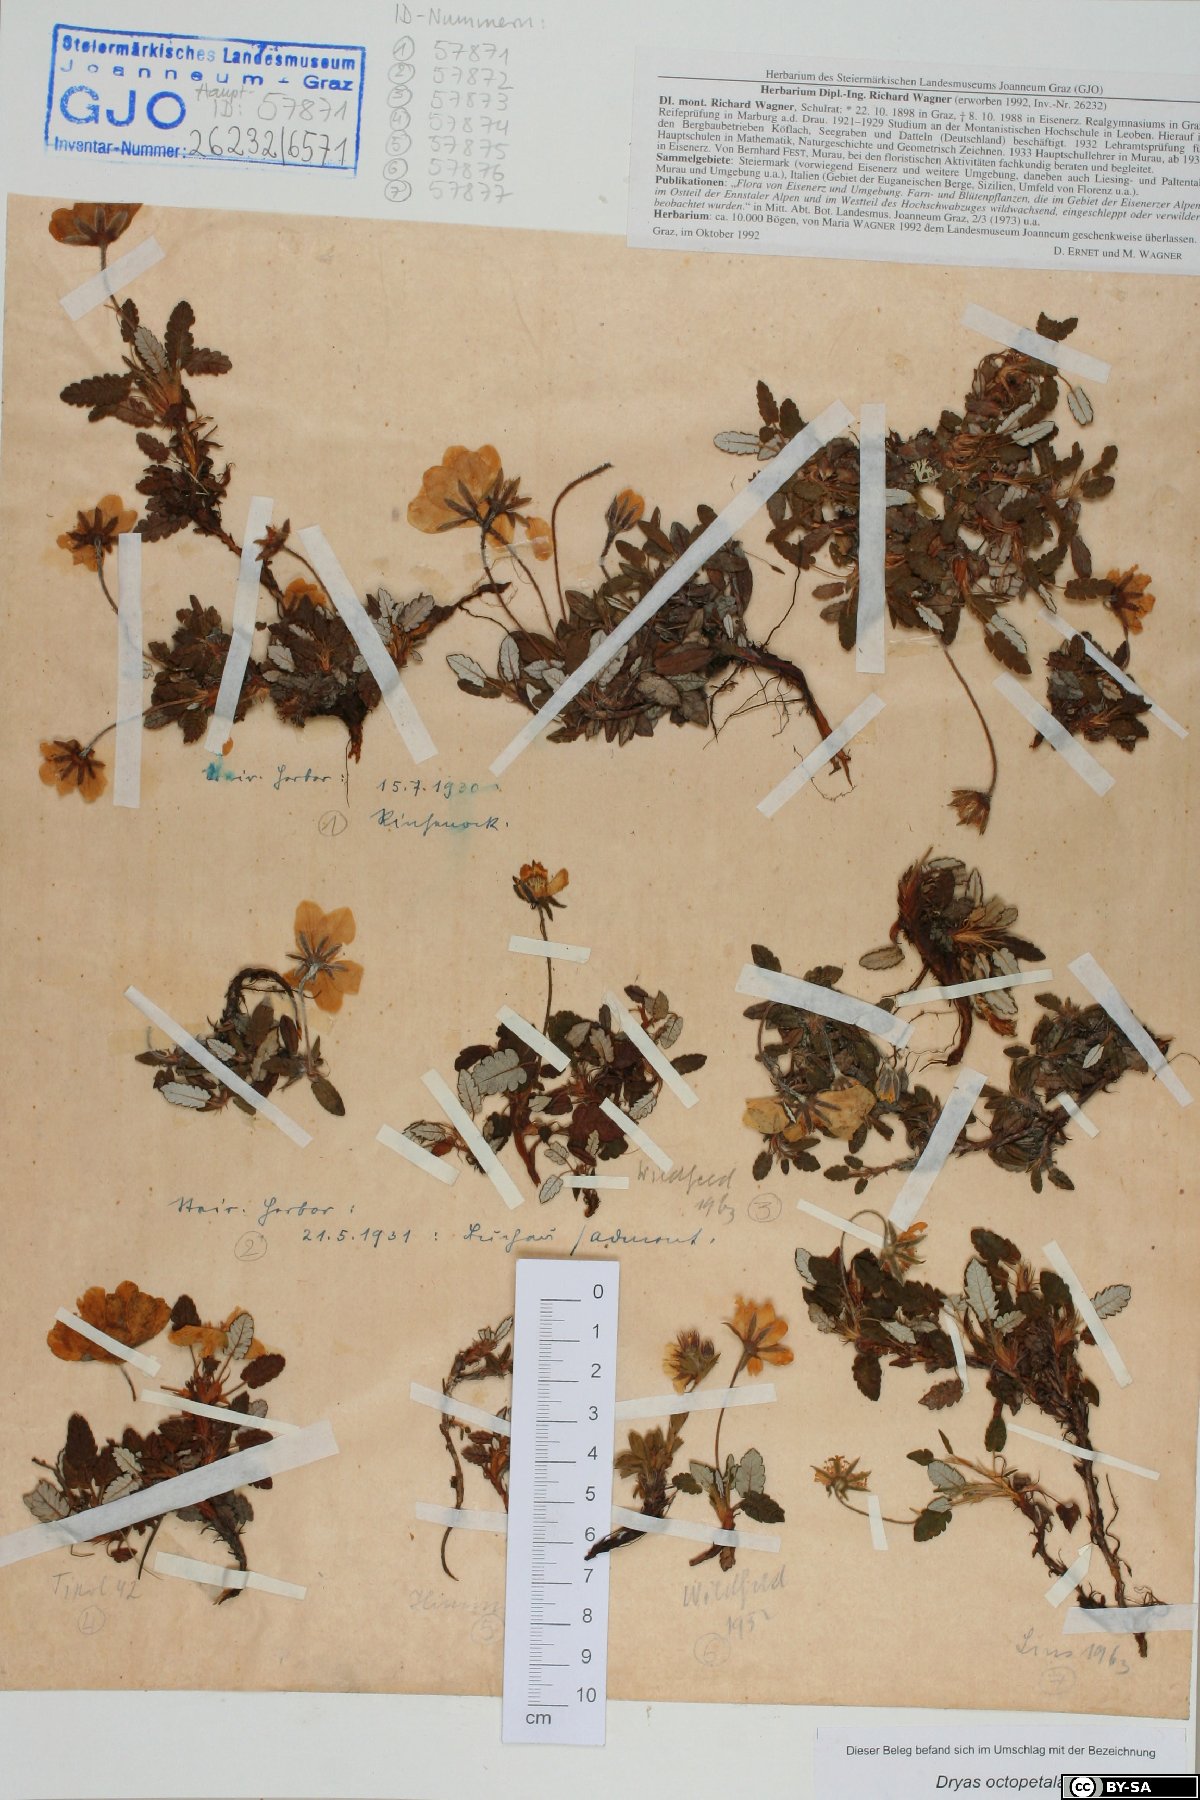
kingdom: Plantae
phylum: Tracheophyta
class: Magnoliopsida
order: Rosales
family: Rosaceae
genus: Dryas
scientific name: Dryas octopetala
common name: Eight-petal mountain-avens
